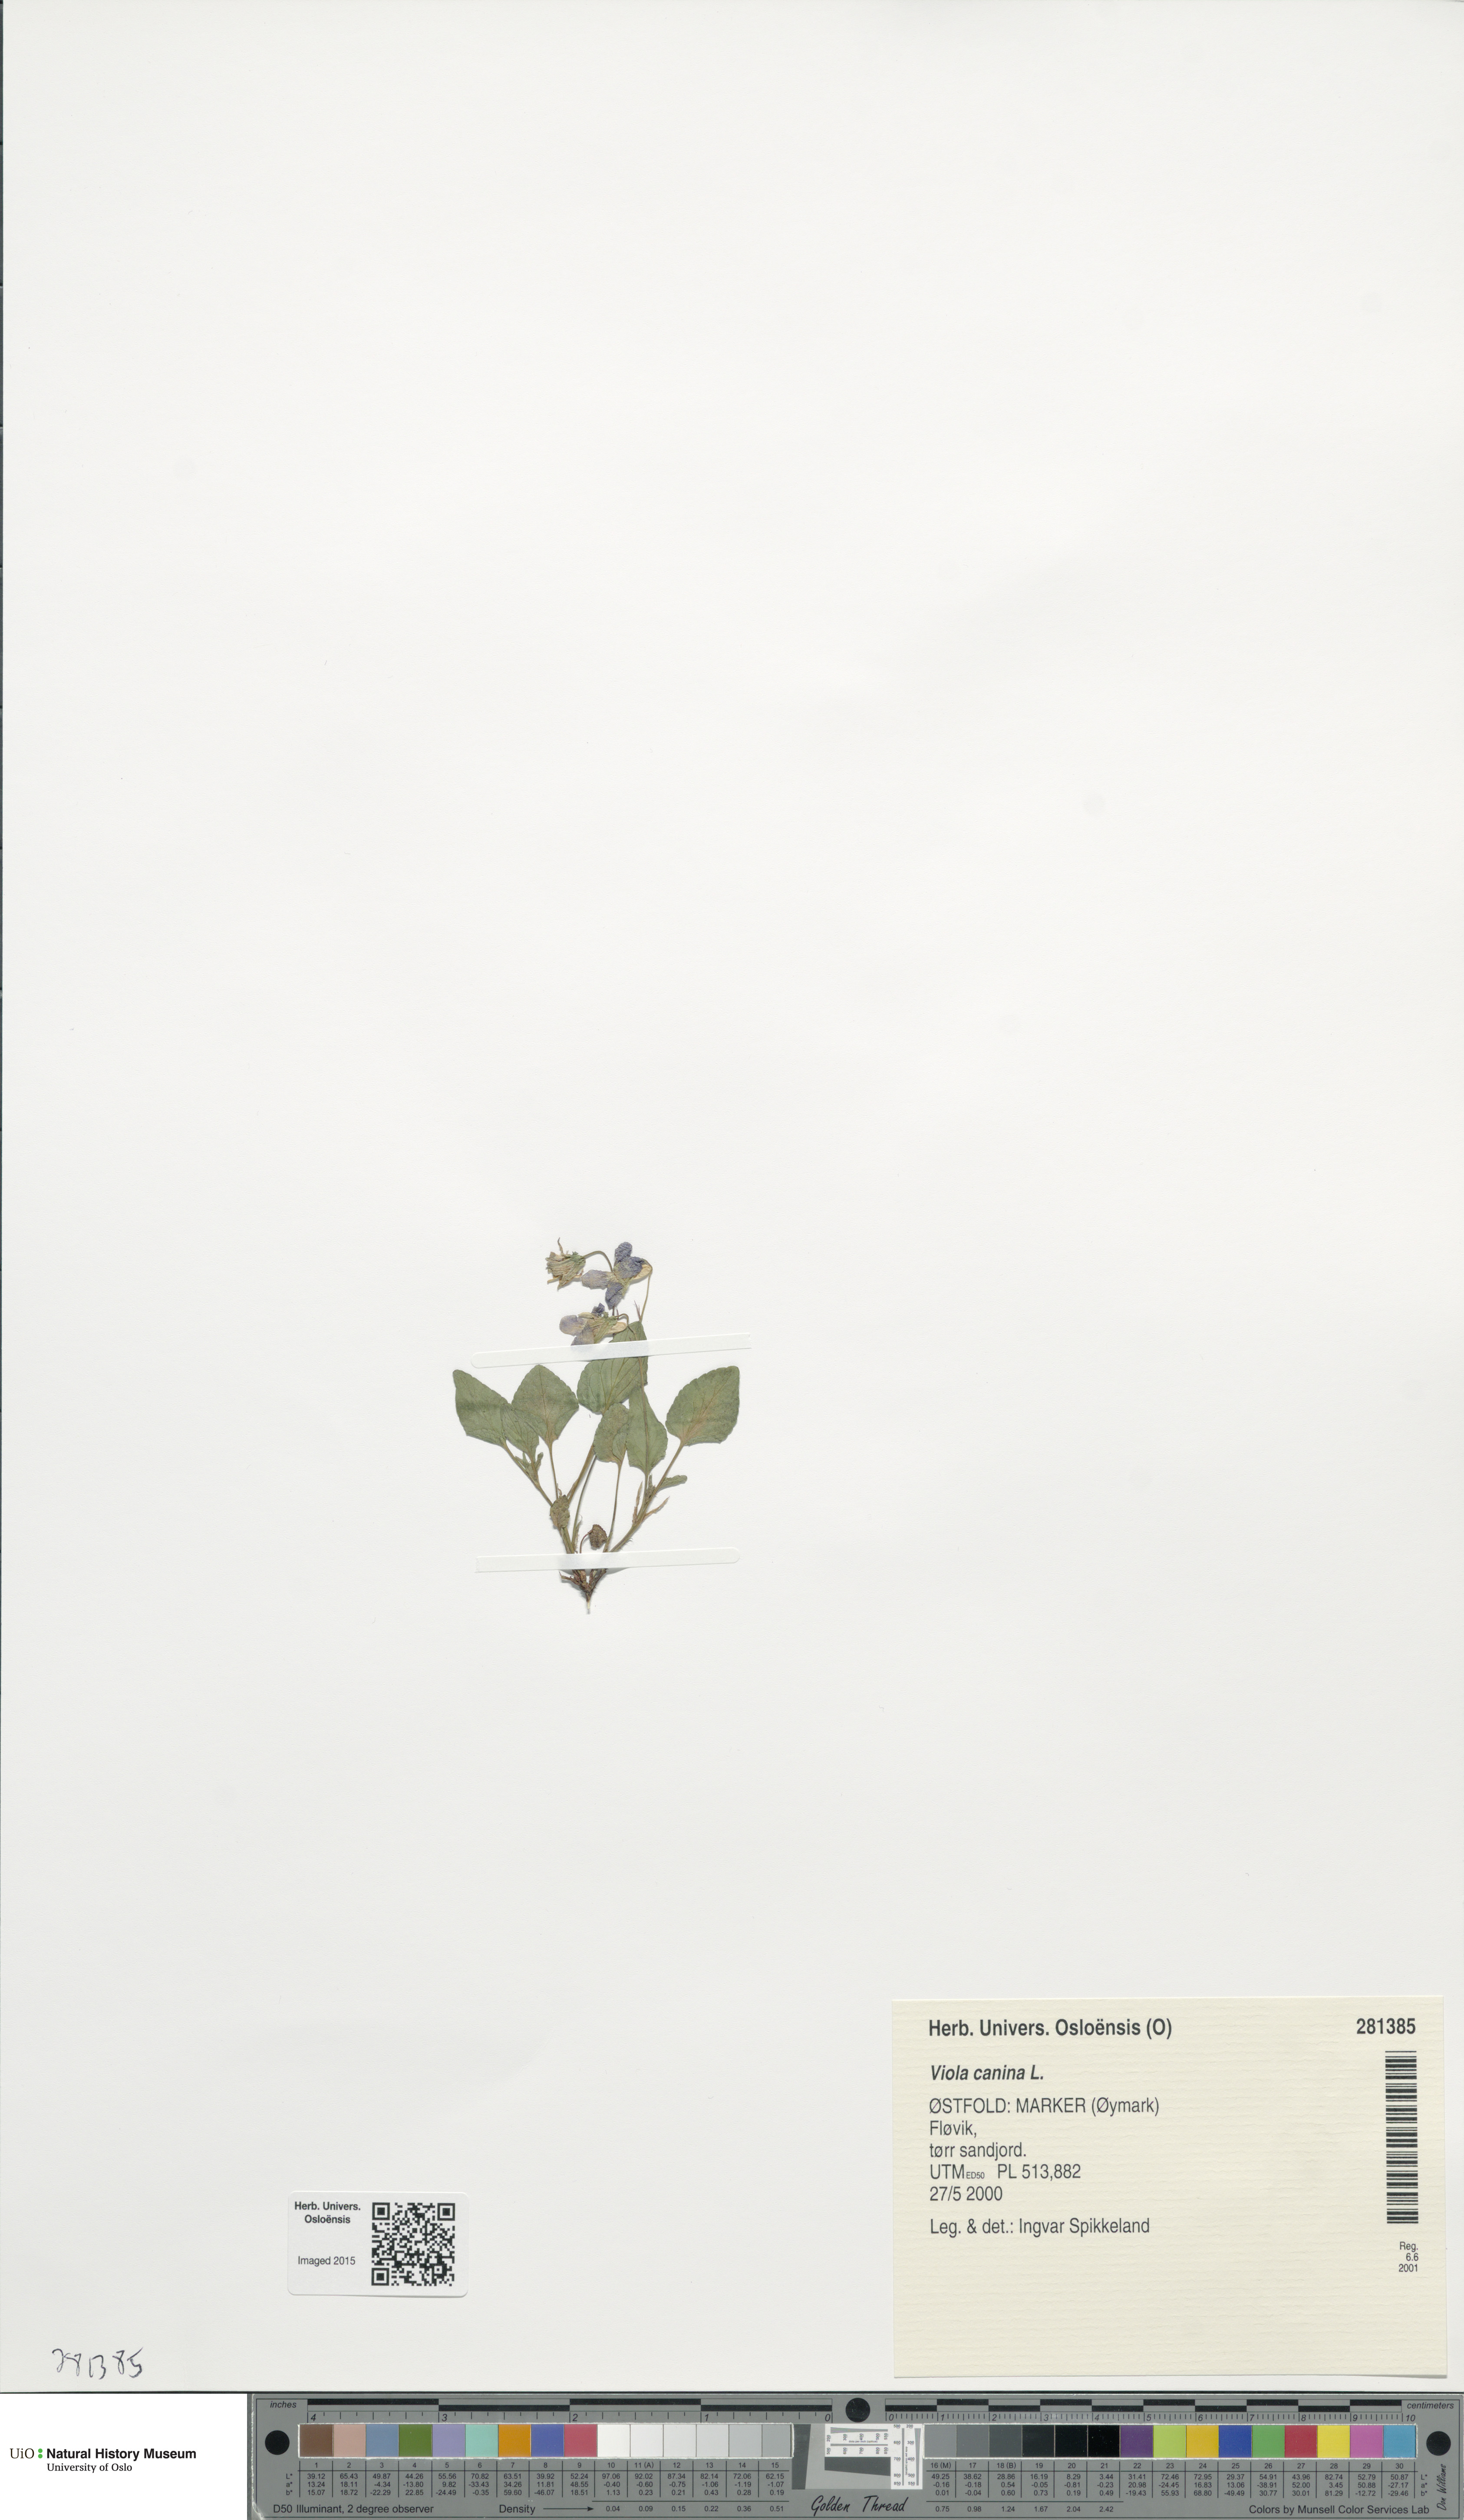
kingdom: Plantae
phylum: Tracheophyta
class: Magnoliopsida
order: Malpighiales
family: Violaceae
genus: Viola
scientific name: Viola canina
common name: Heath dog-violet
